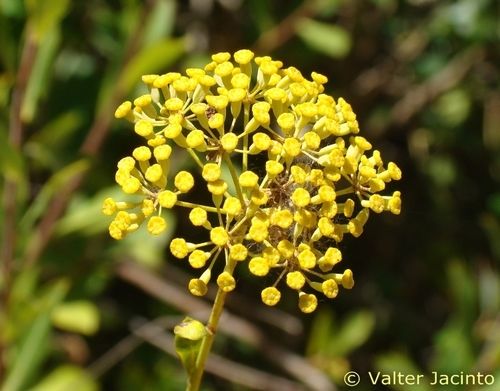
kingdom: Plantae
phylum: Tracheophyta
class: Magnoliopsida
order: Apiales
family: Apiaceae
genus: Bupleurum
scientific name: Bupleurum fruticosum
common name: Shrubby hare's-ear
